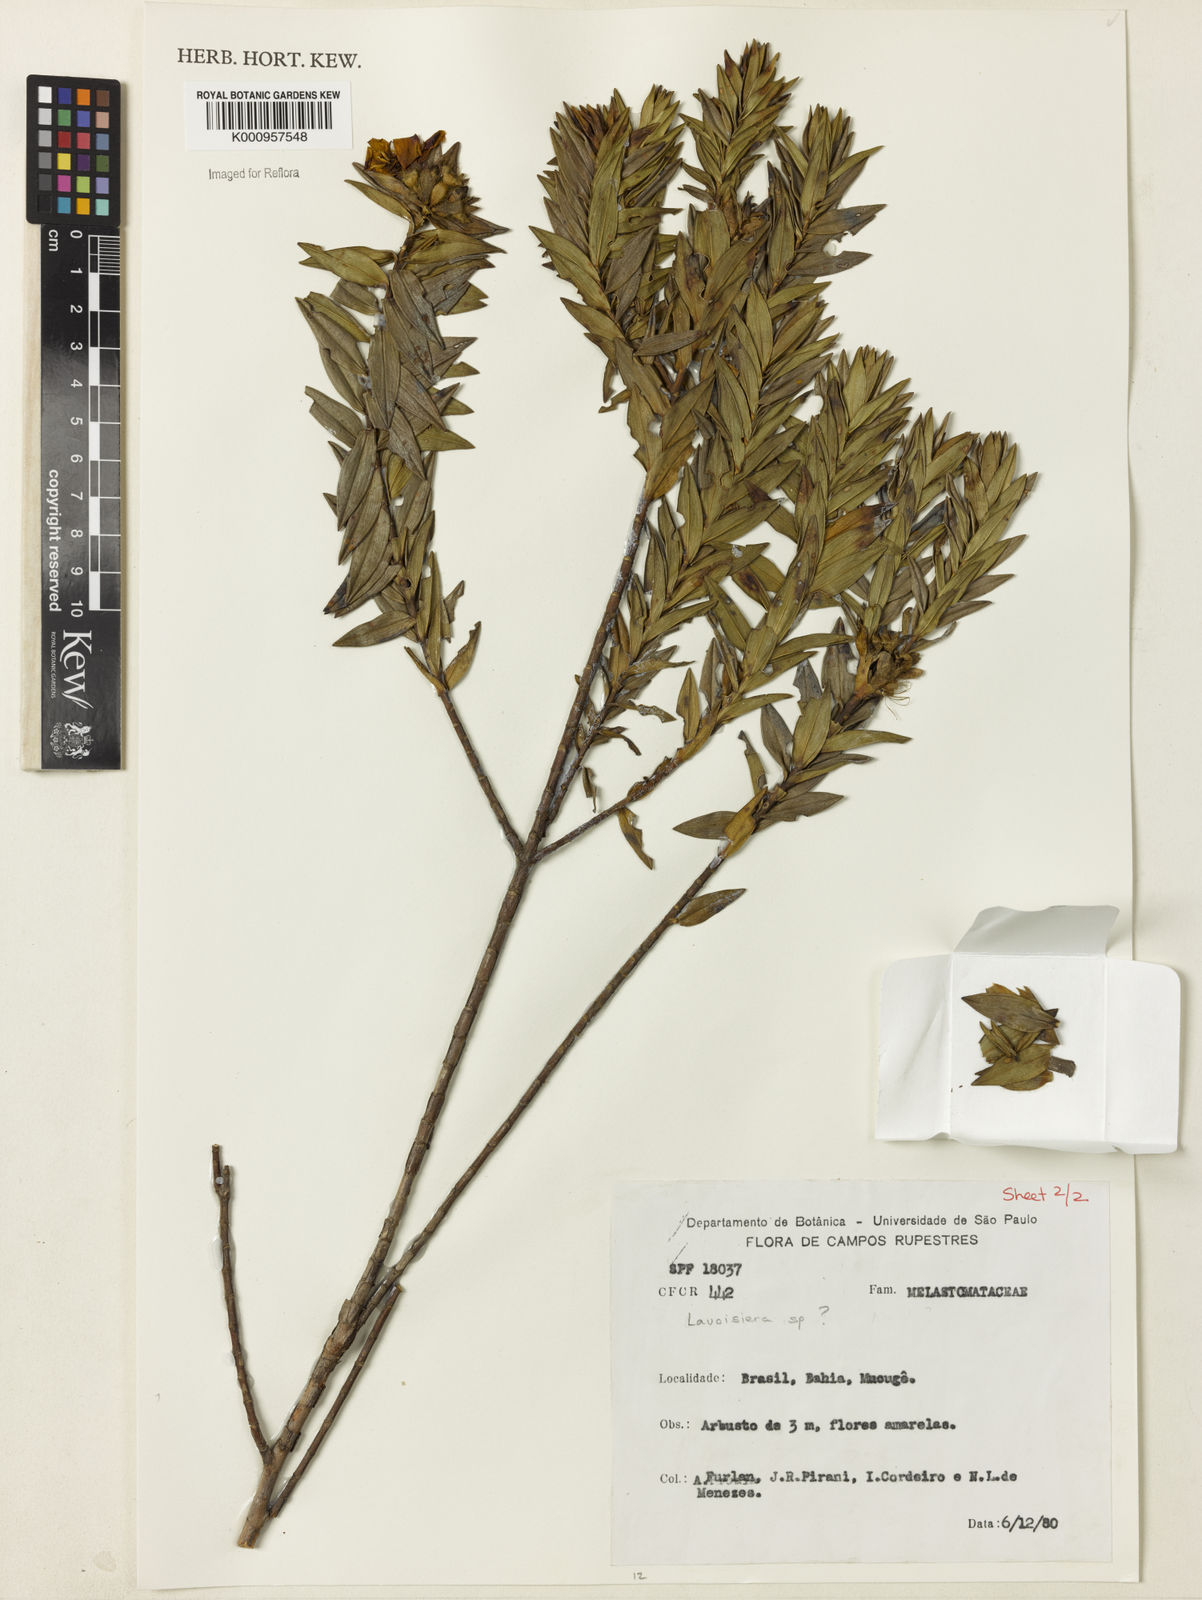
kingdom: Plantae
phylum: Tracheophyta
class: Magnoliopsida
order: Myrtales
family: Melastomataceae
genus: Microlicia
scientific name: Microlicia nervulosa
